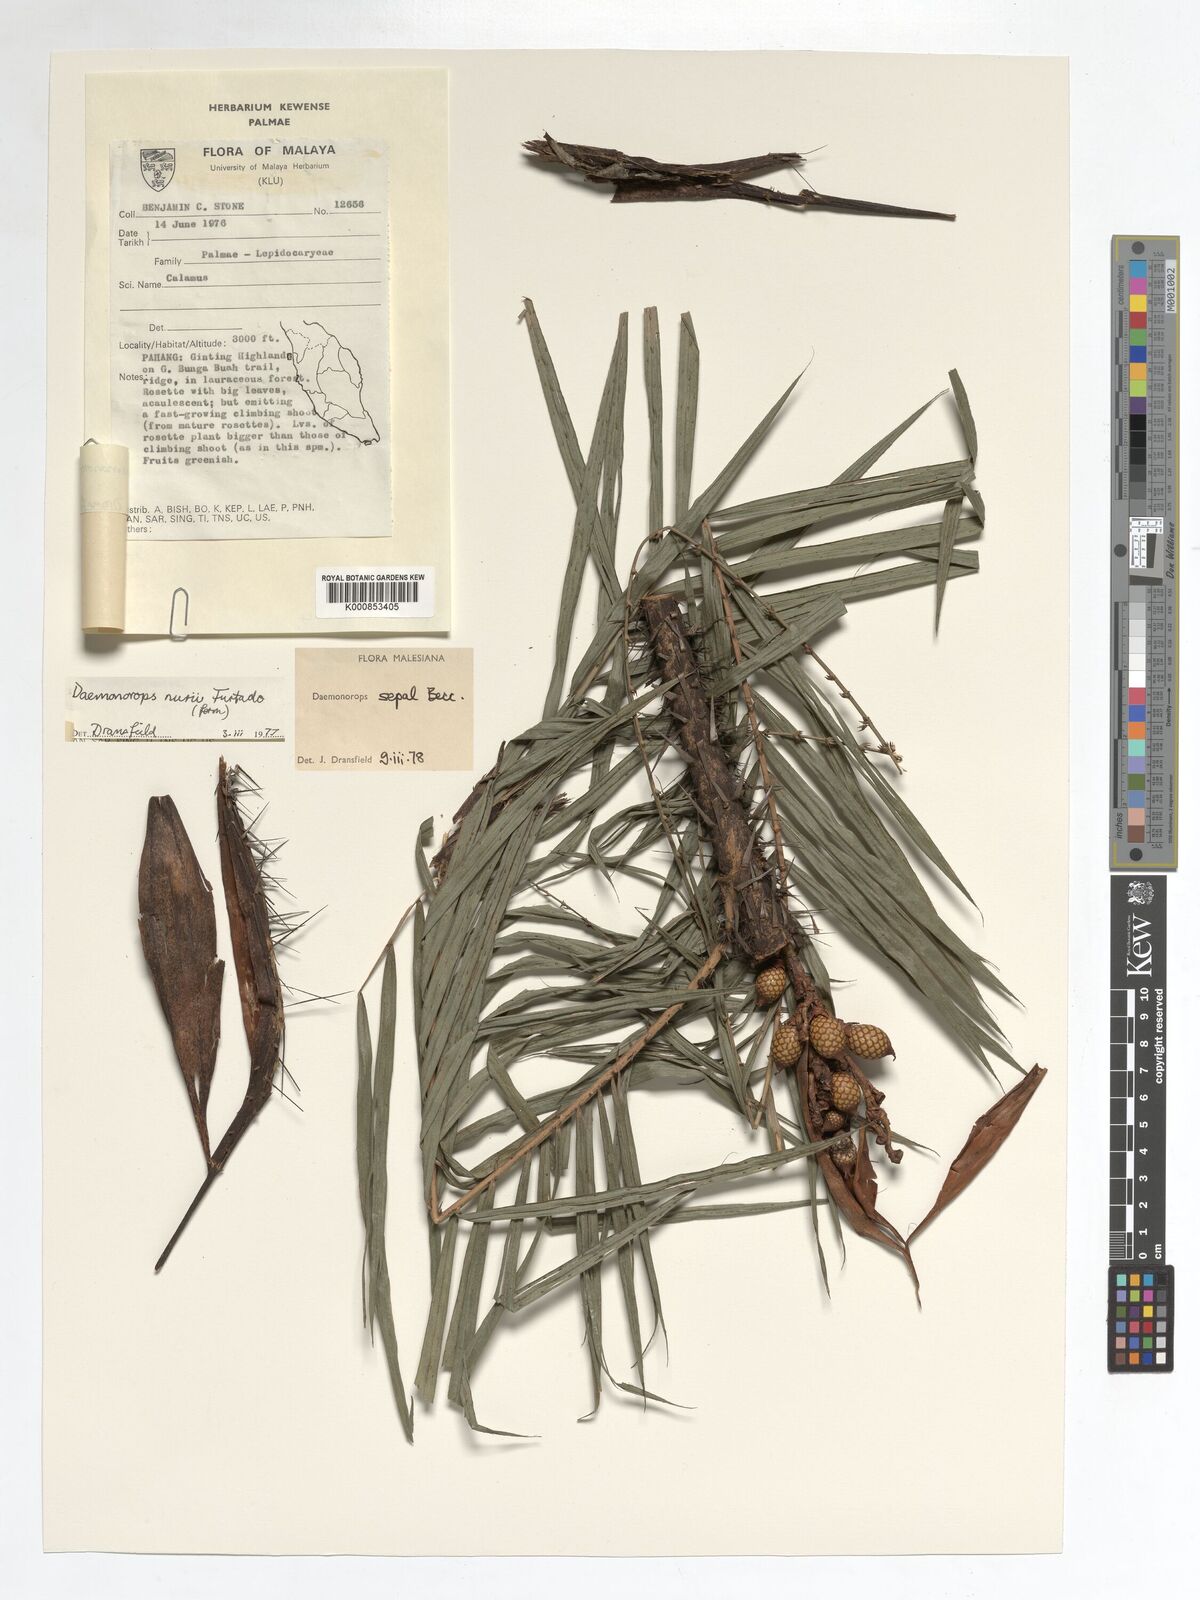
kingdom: Plantae
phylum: Tracheophyta
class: Liliopsida
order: Arecales
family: Arecaceae
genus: Calamus
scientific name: Calamus melanochaetes
